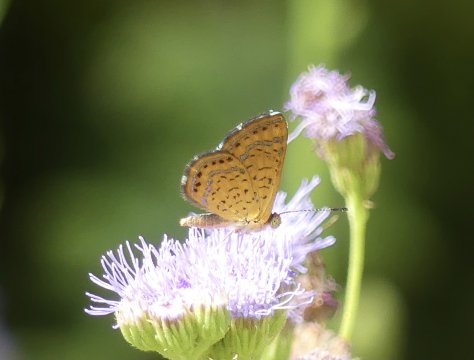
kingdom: Animalia
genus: Calephelis
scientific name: Calephelis
